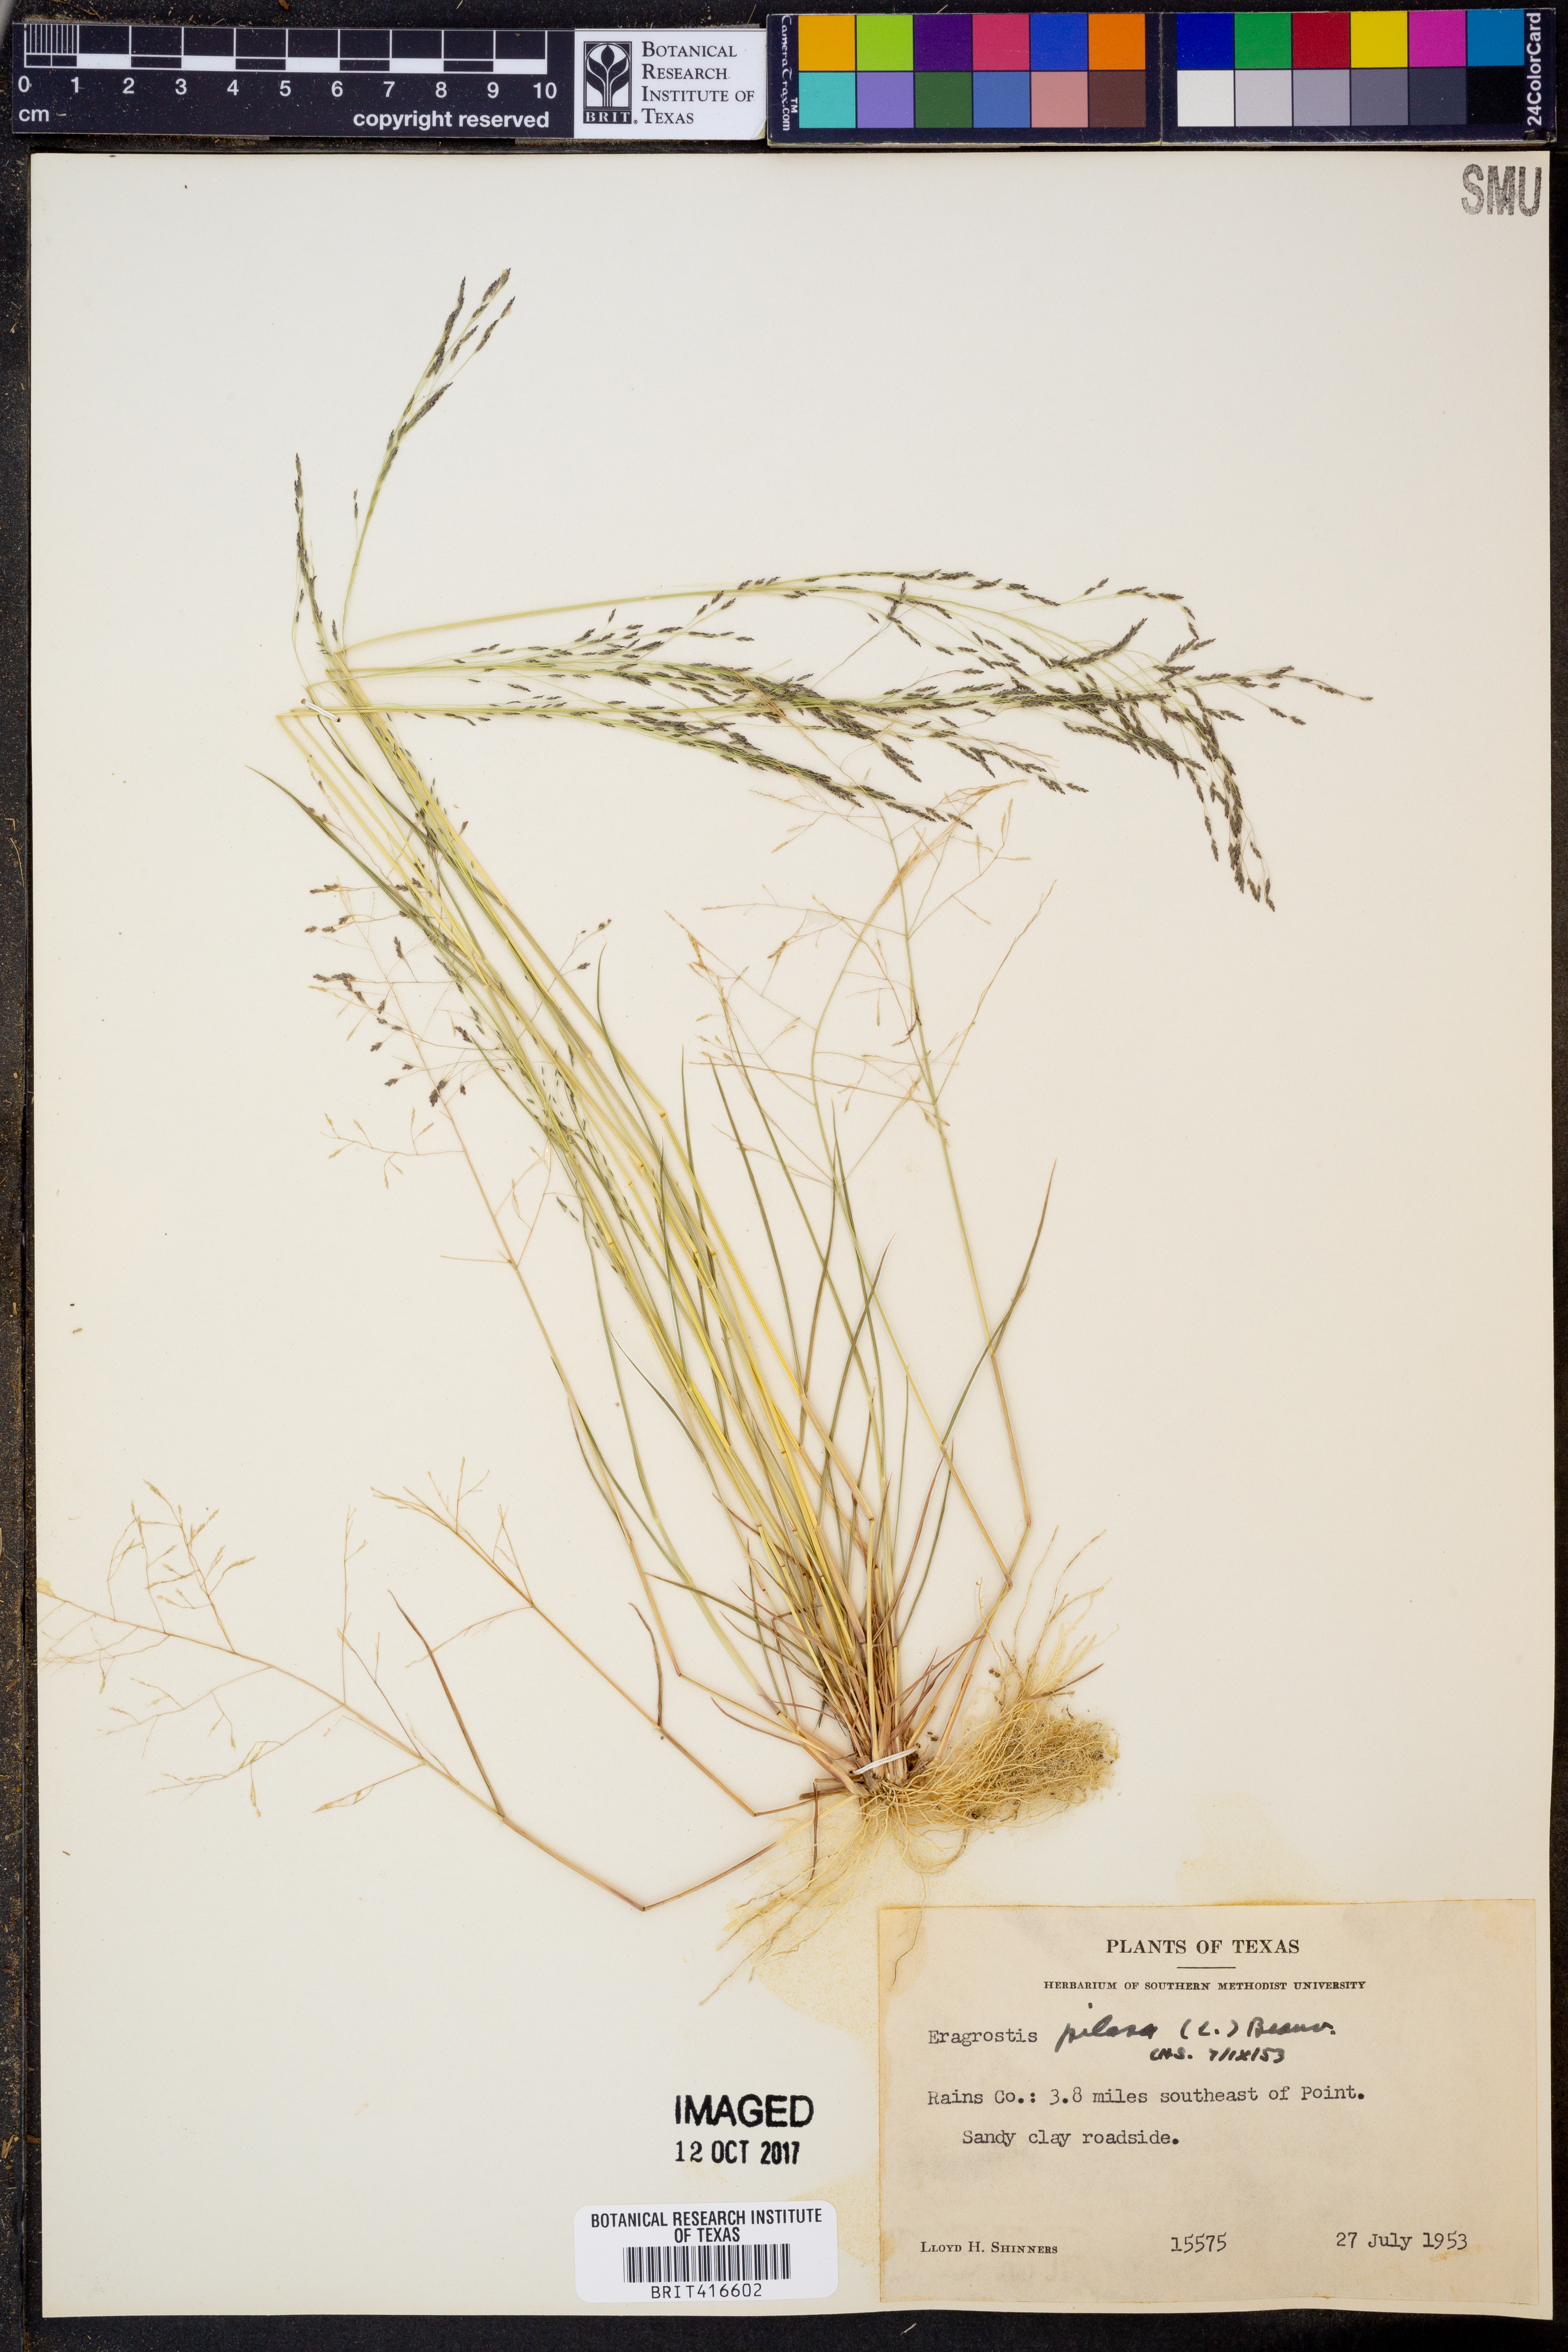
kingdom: Plantae
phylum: Tracheophyta
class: Liliopsida
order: Poales
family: Poaceae
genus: Eragrostis
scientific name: Eragrostis pilosa
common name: Indian lovegrass
